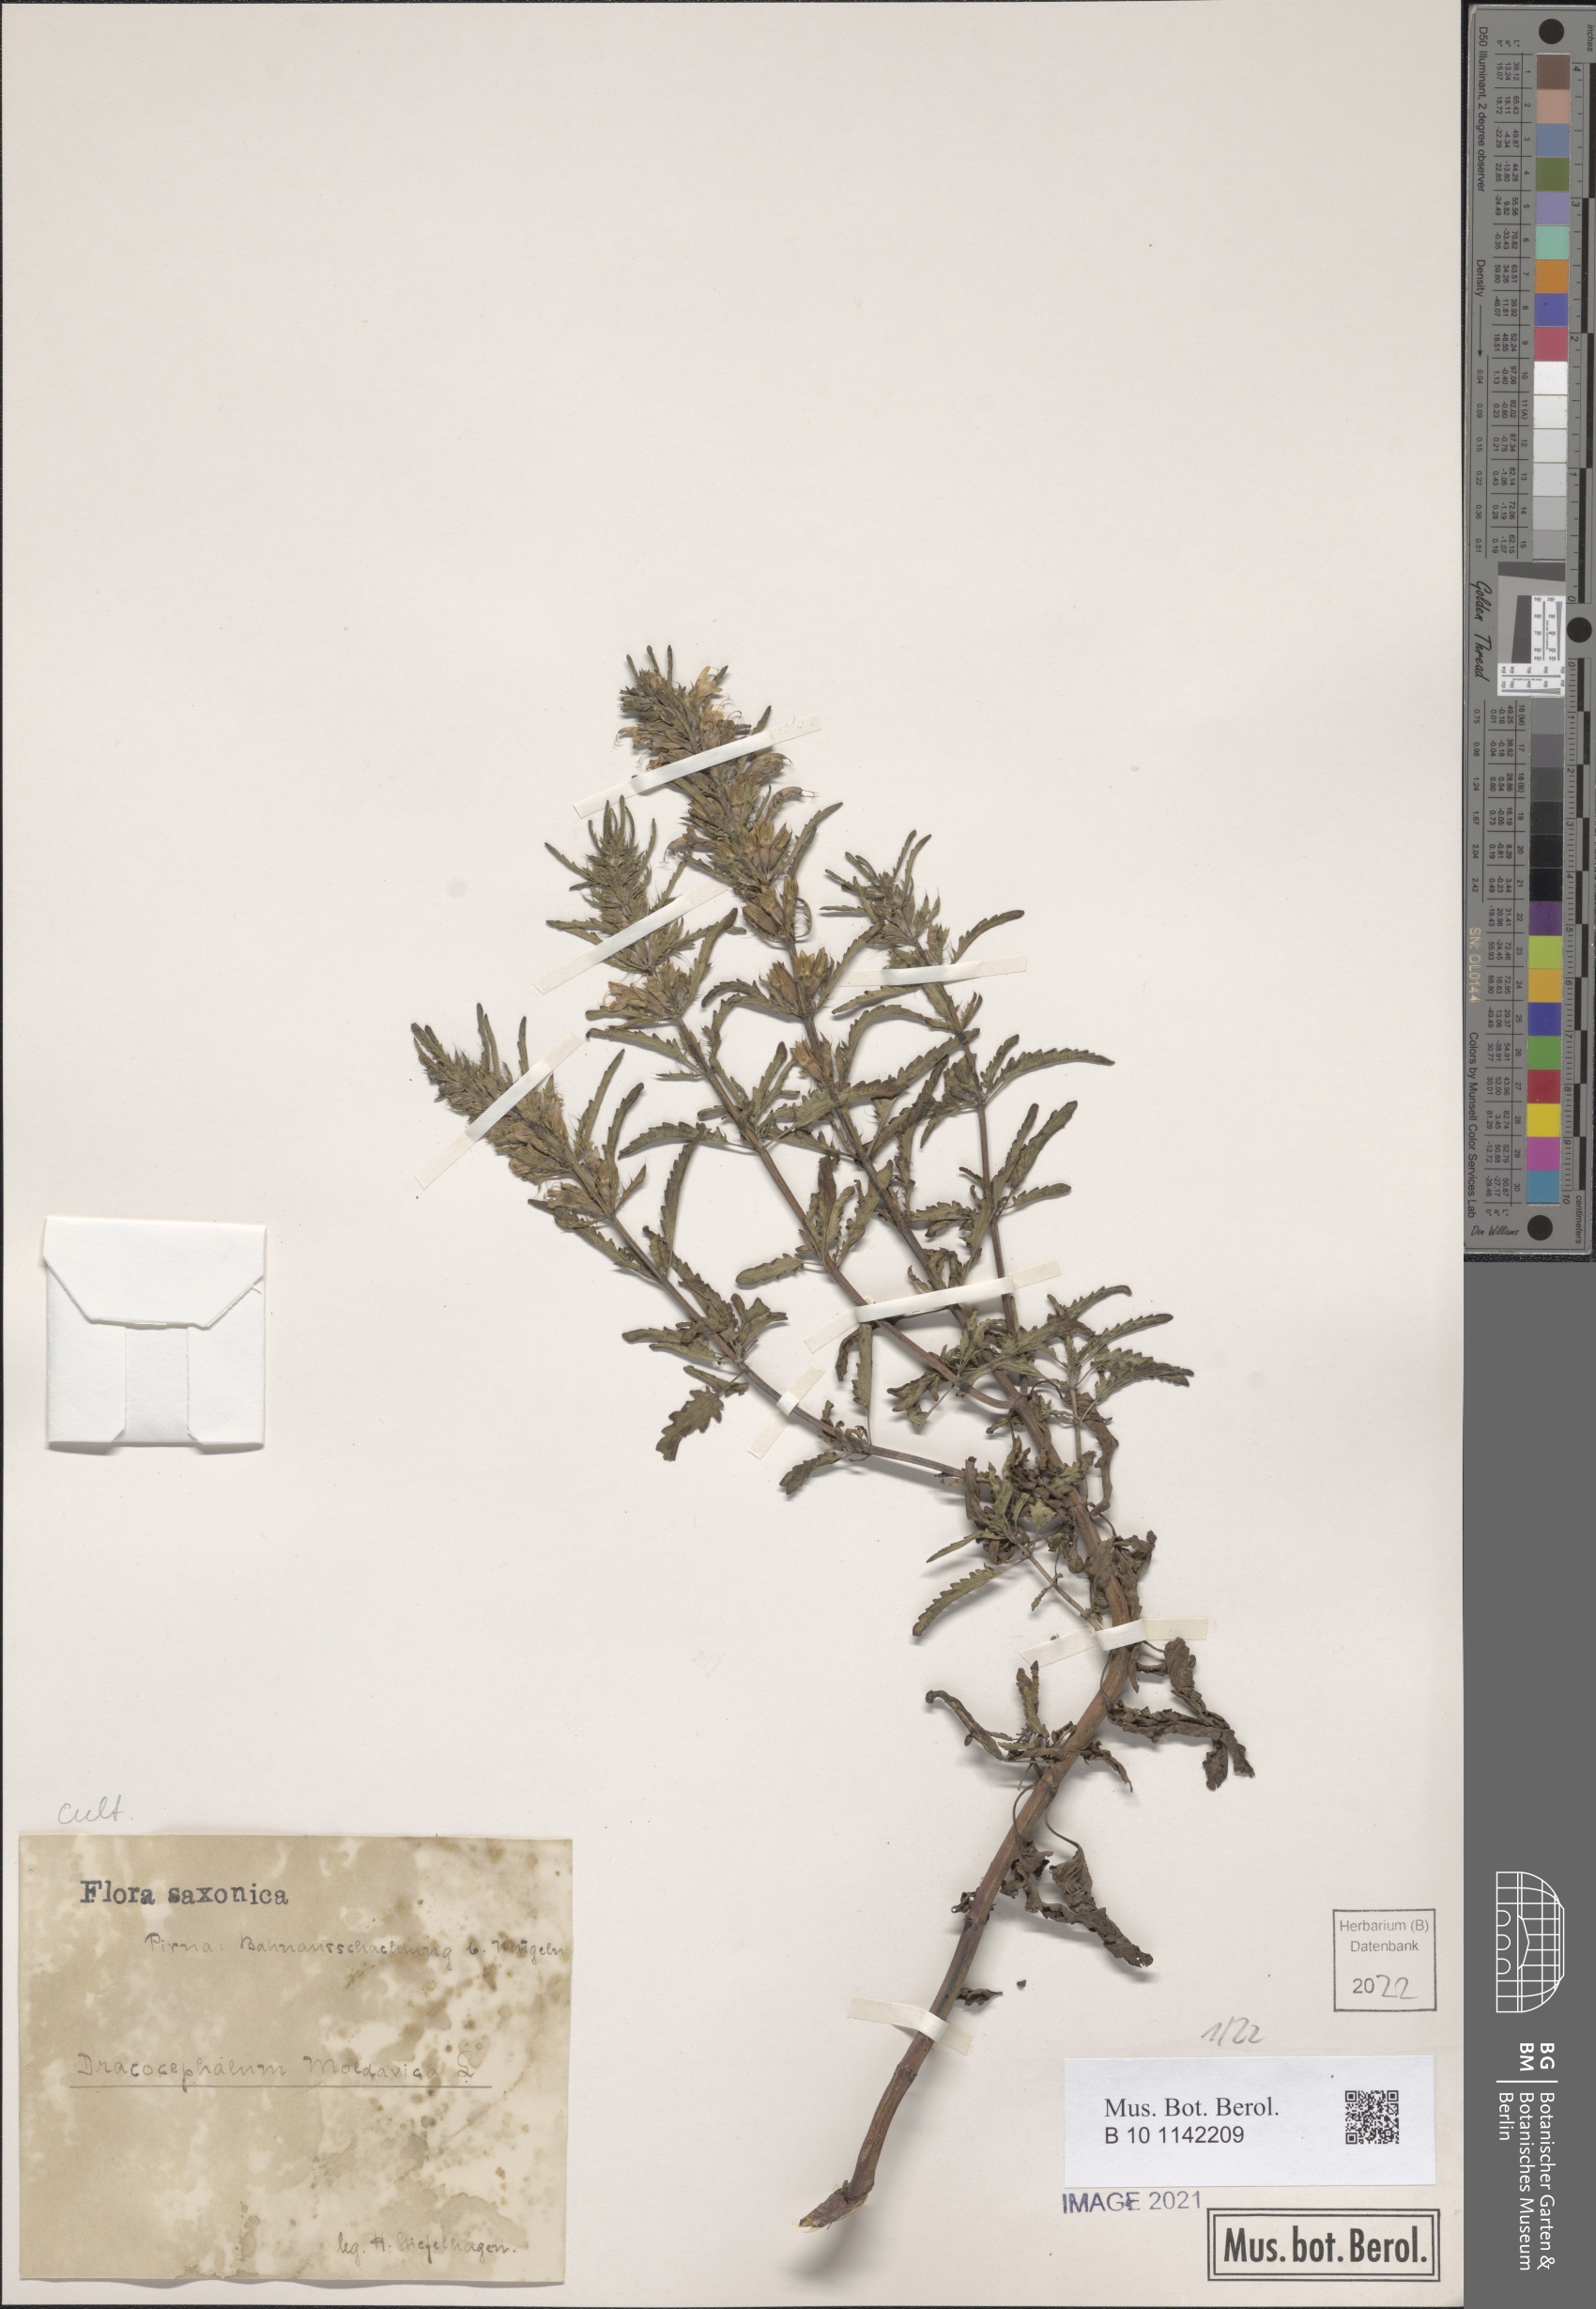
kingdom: Plantae
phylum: Tracheophyta
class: Magnoliopsida
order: Lamiales
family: Lamiaceae
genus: Dracocephalum
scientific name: Dracocephalum moldavica
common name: Moldavian dragonhead
